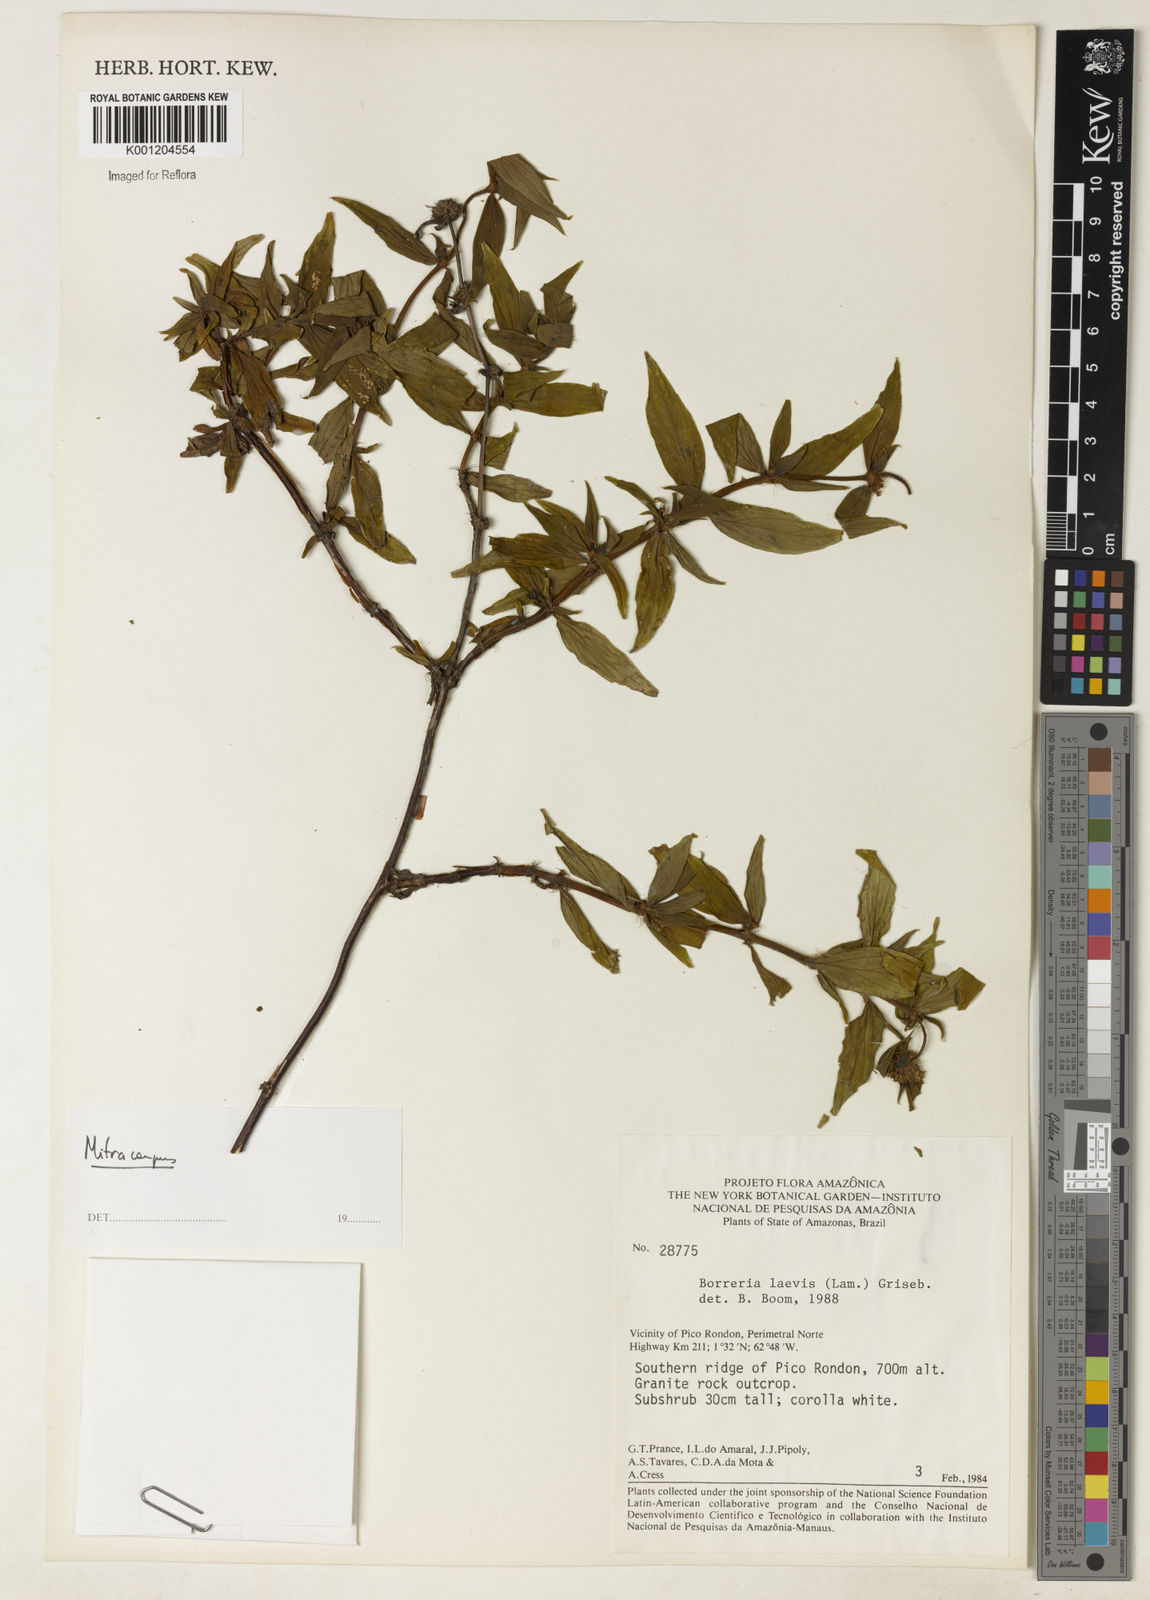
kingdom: Plantae
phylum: Tracheophyta
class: Magnoliopsida
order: Gentianales
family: Rubiaceae
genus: Mitracarpus
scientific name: Mitracarpus
